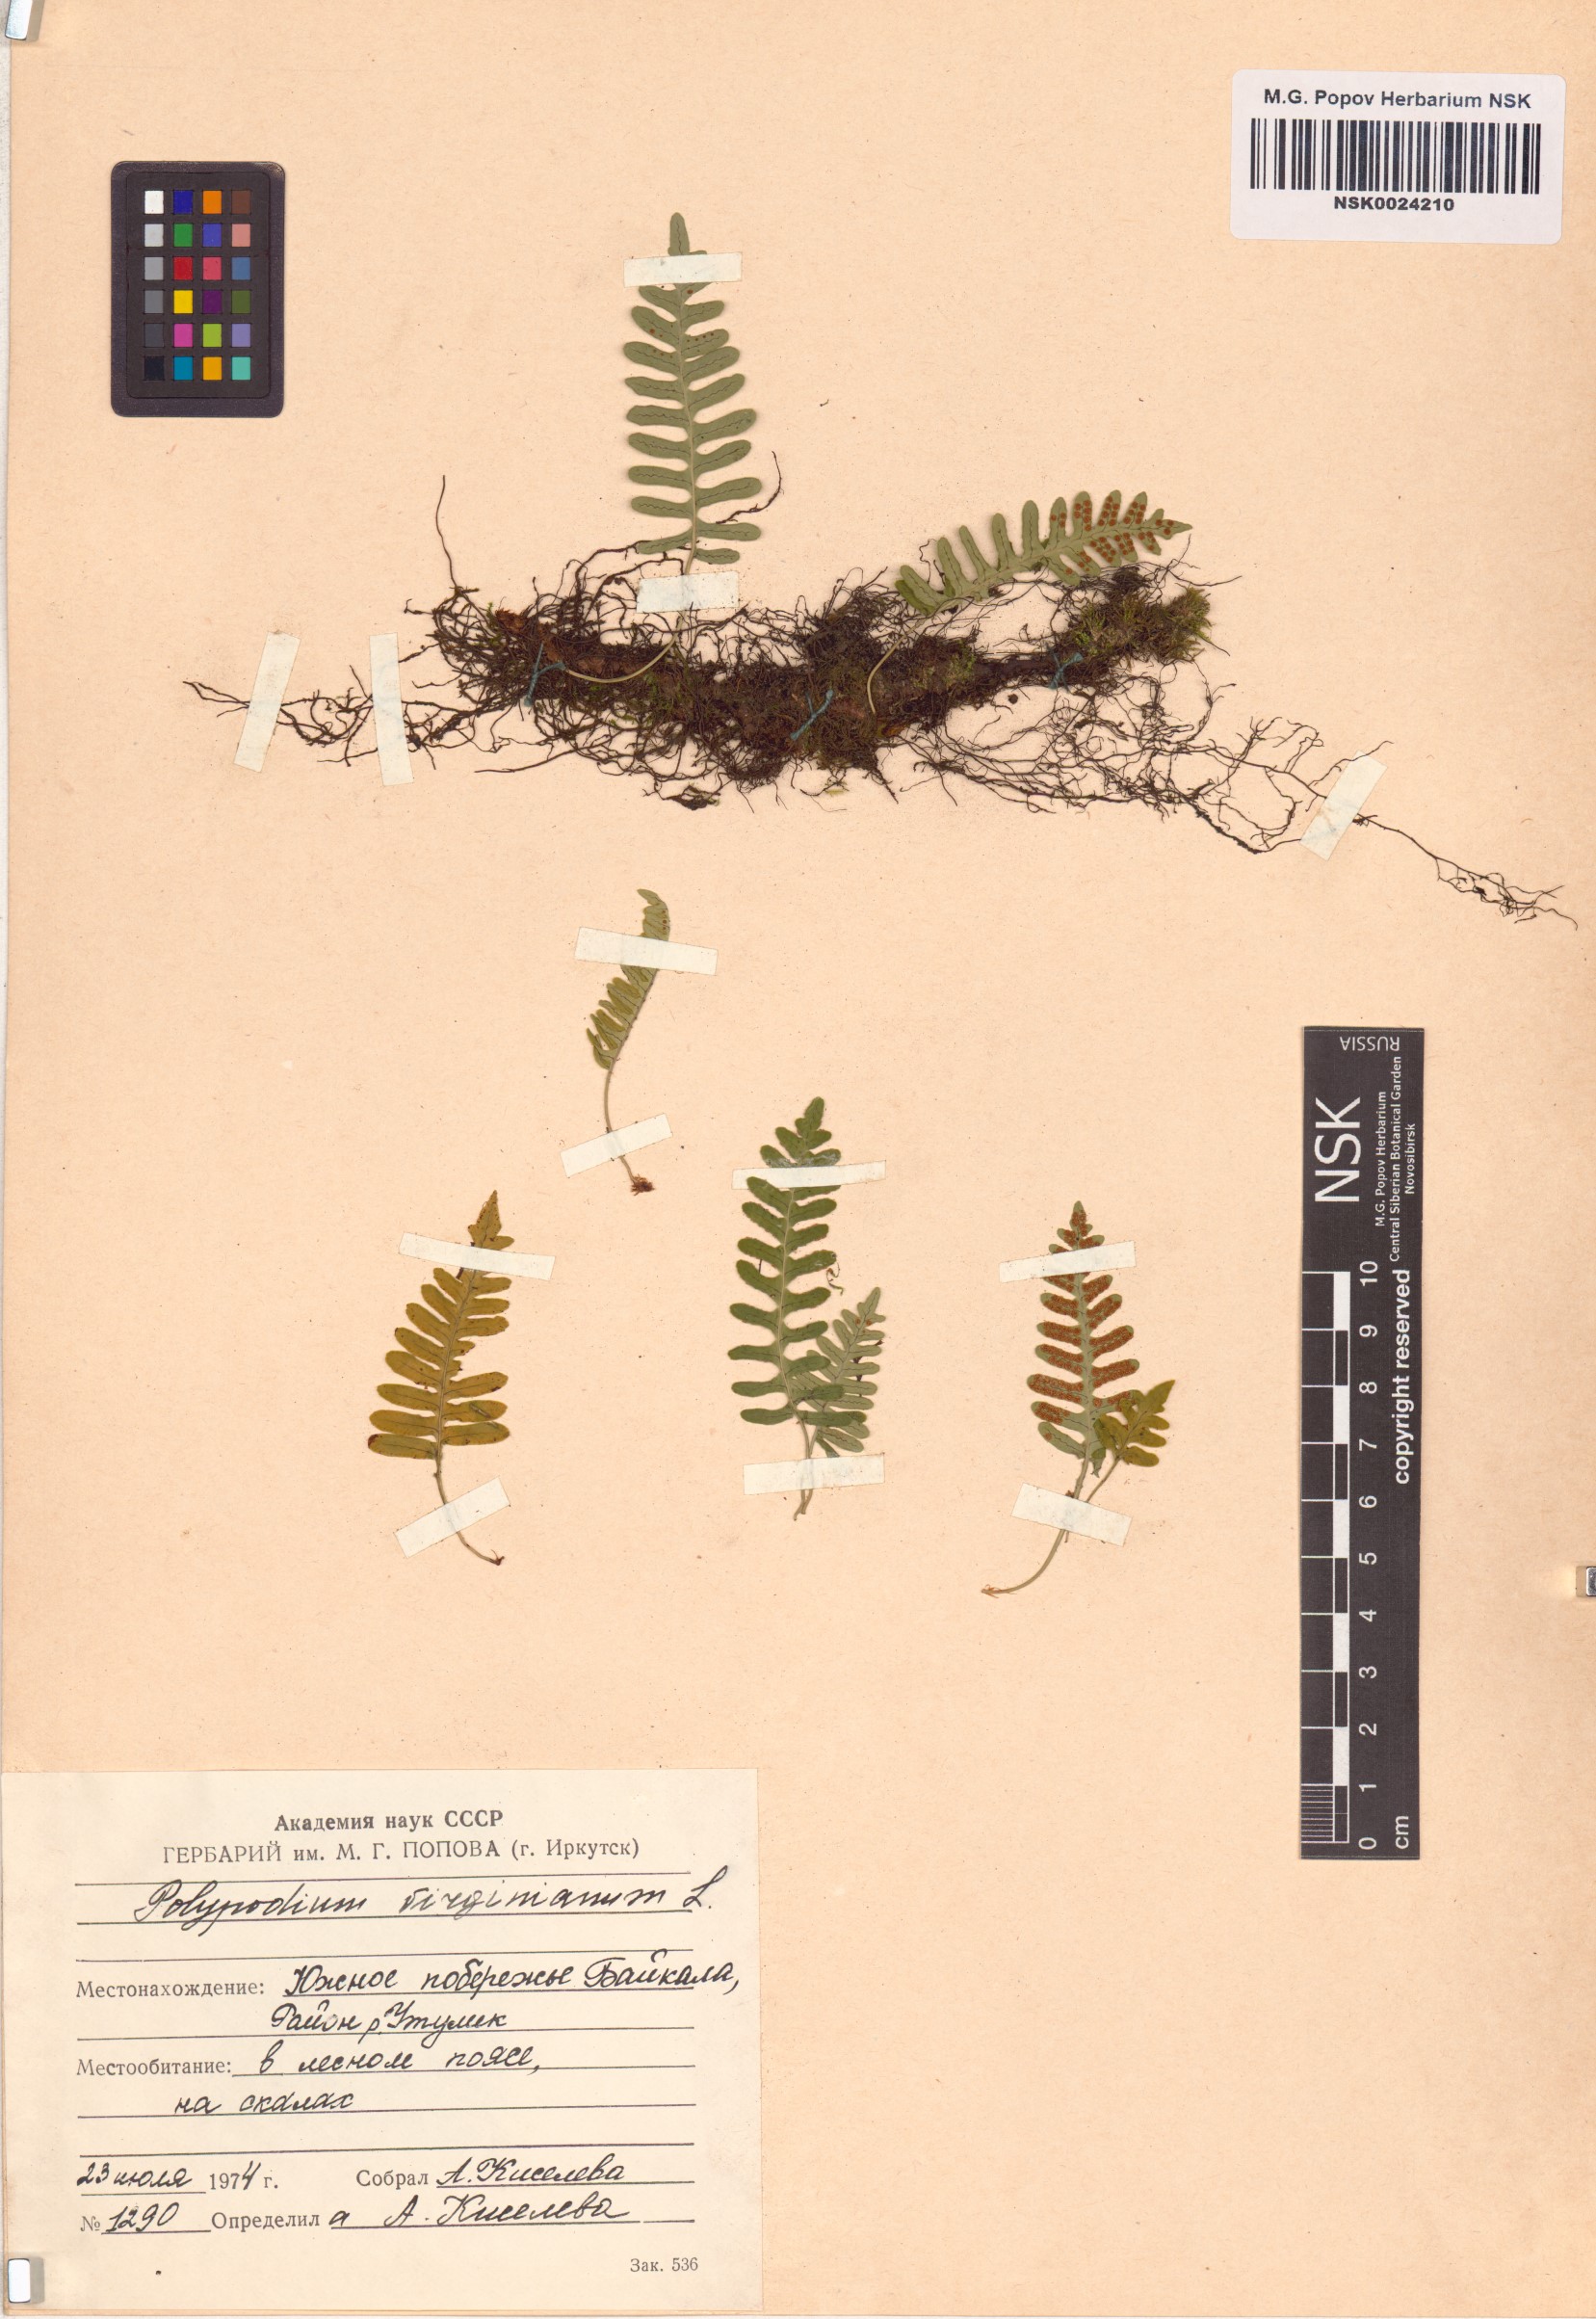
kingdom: Plantae
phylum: Tracheophyta
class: Polypodiopsida
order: Polypodiales
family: Polypodiaceae
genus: Polypodium
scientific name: Polypodium virginianum
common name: American wall fern
